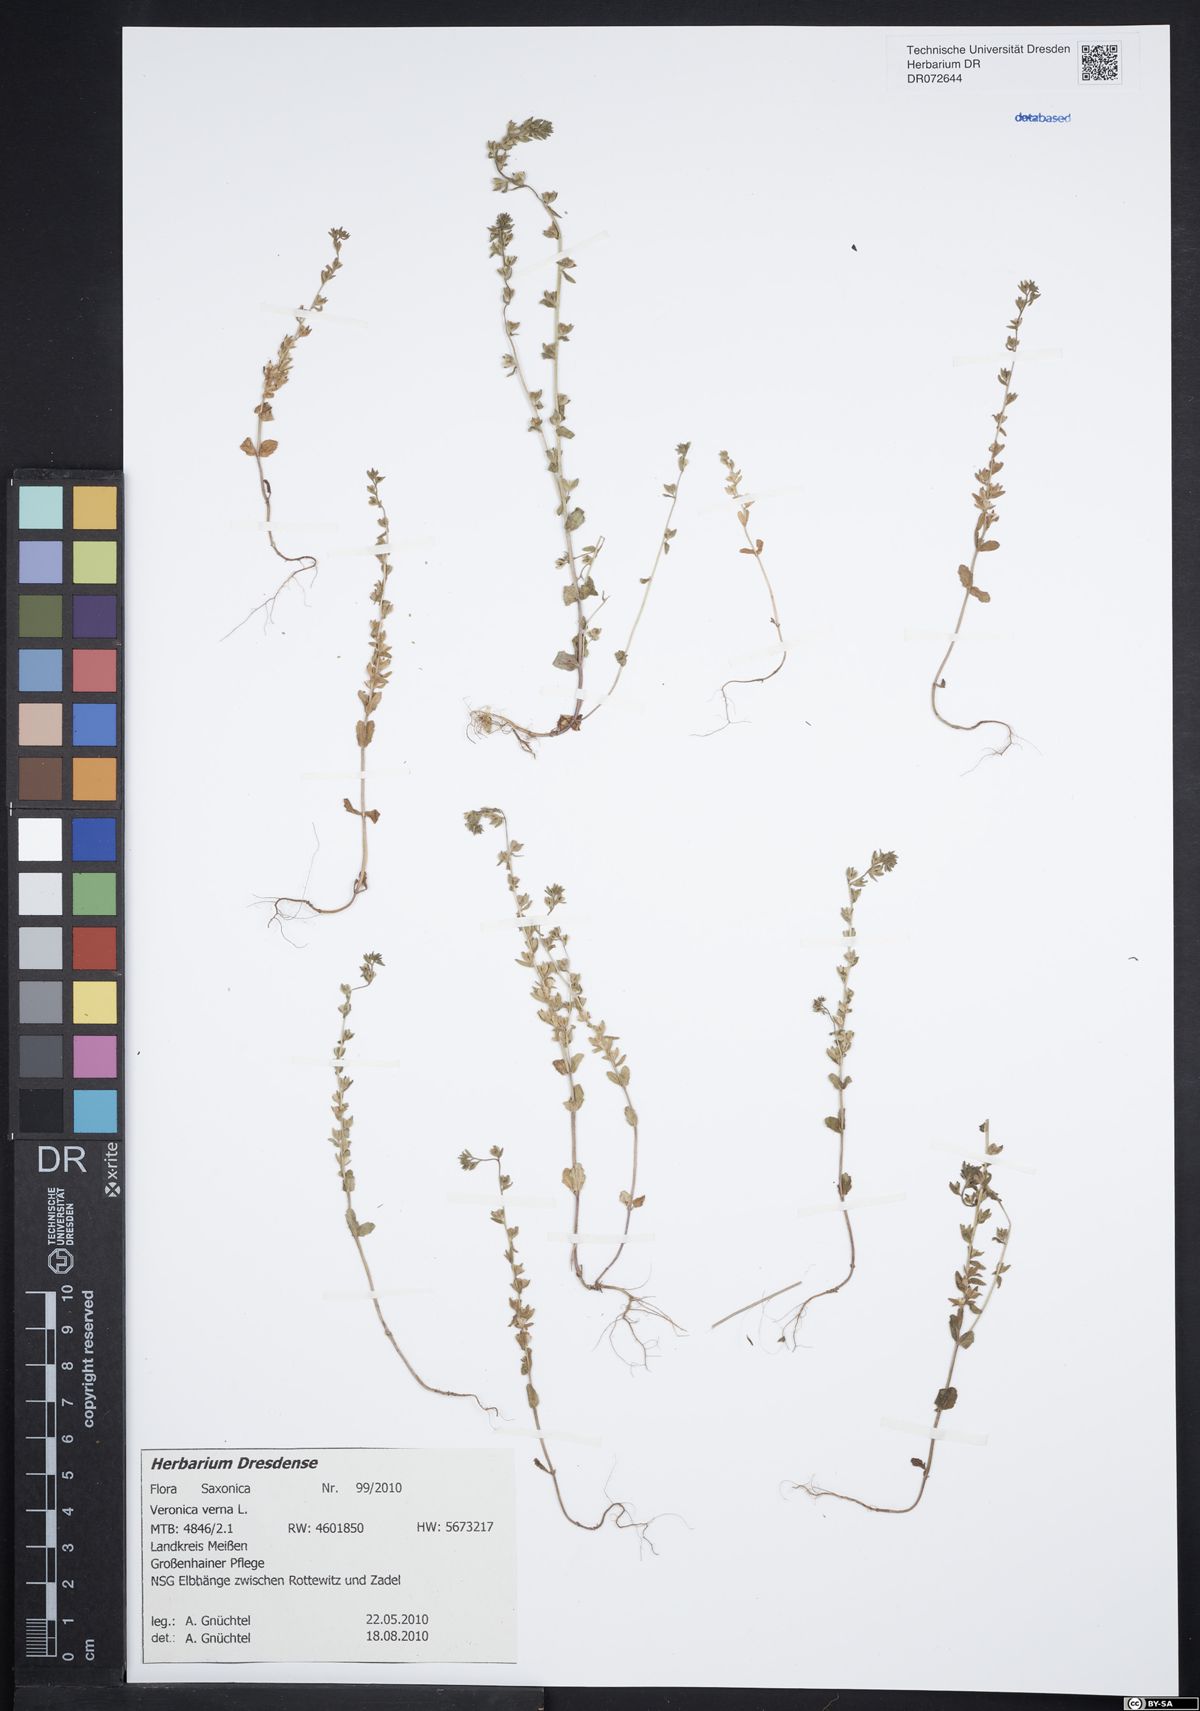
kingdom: Plantae
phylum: Tracheophyta
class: Magnoliopsida
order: Lamiales
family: Plantaginaceae
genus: Veronica
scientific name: Veronica verna
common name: Spring speedwell
